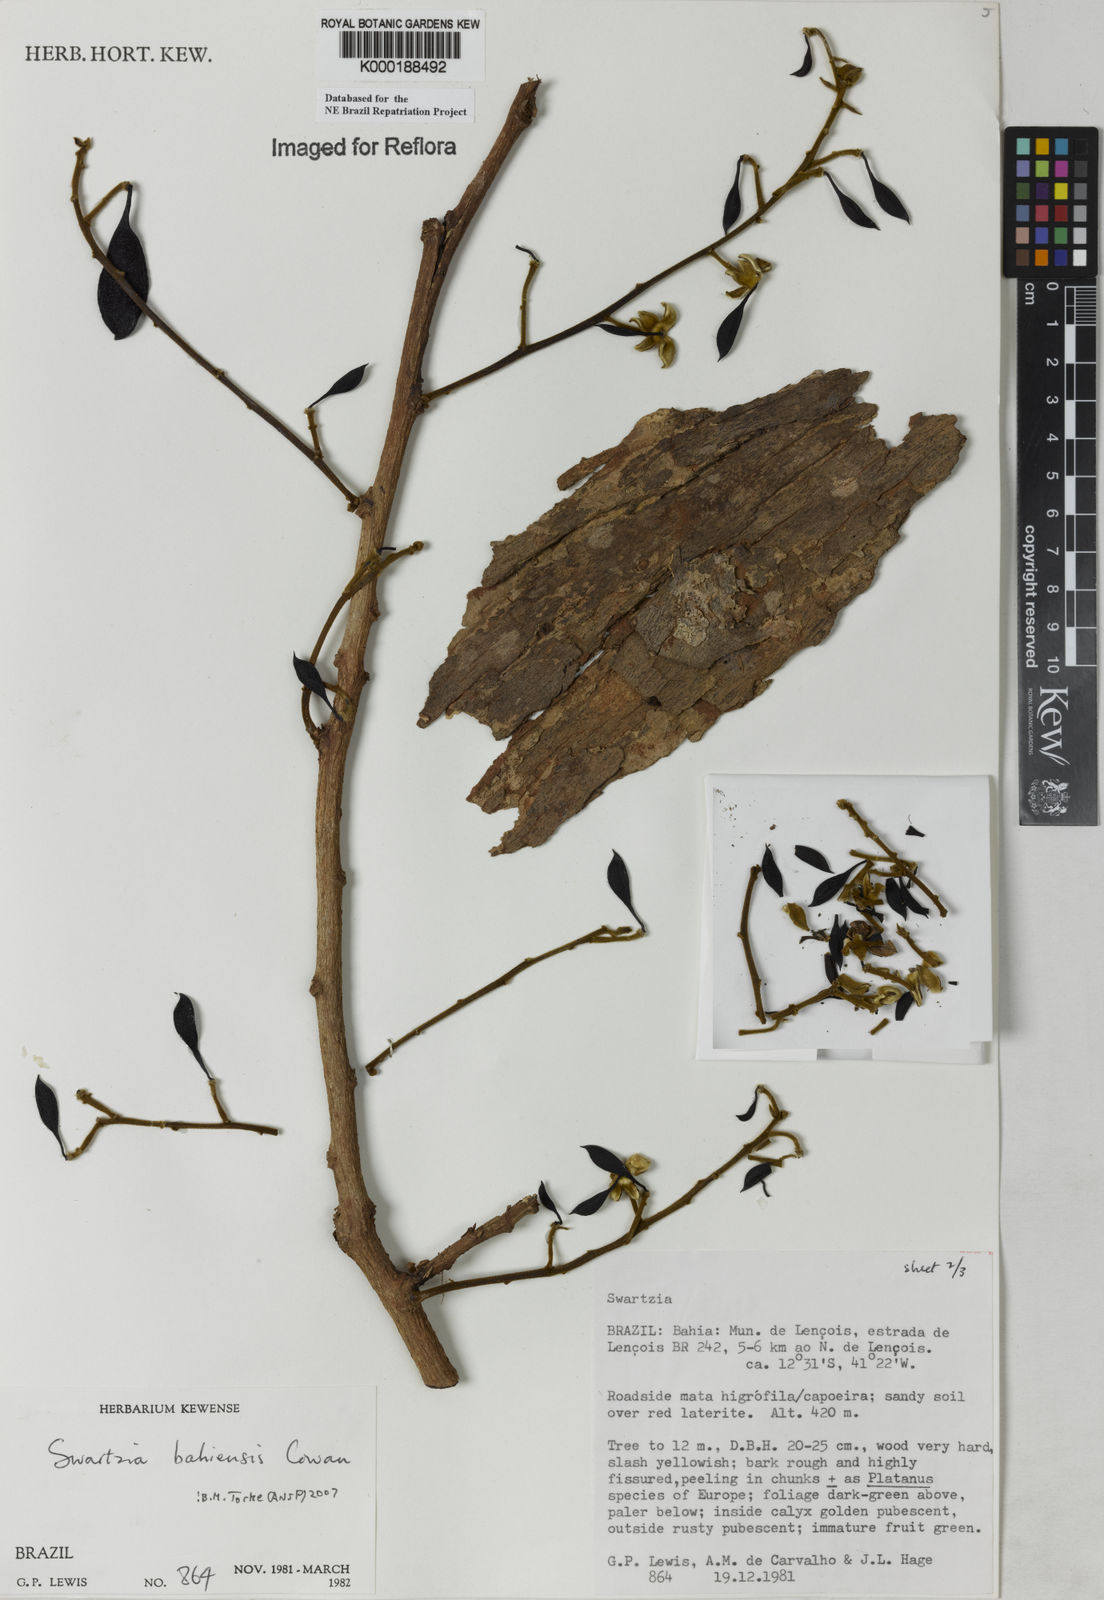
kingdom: Plantae
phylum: Tracheophyta
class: Magnoliopsida
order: Fabales
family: Fabaceae
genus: Swartzia
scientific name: Swartzia bahiensis
